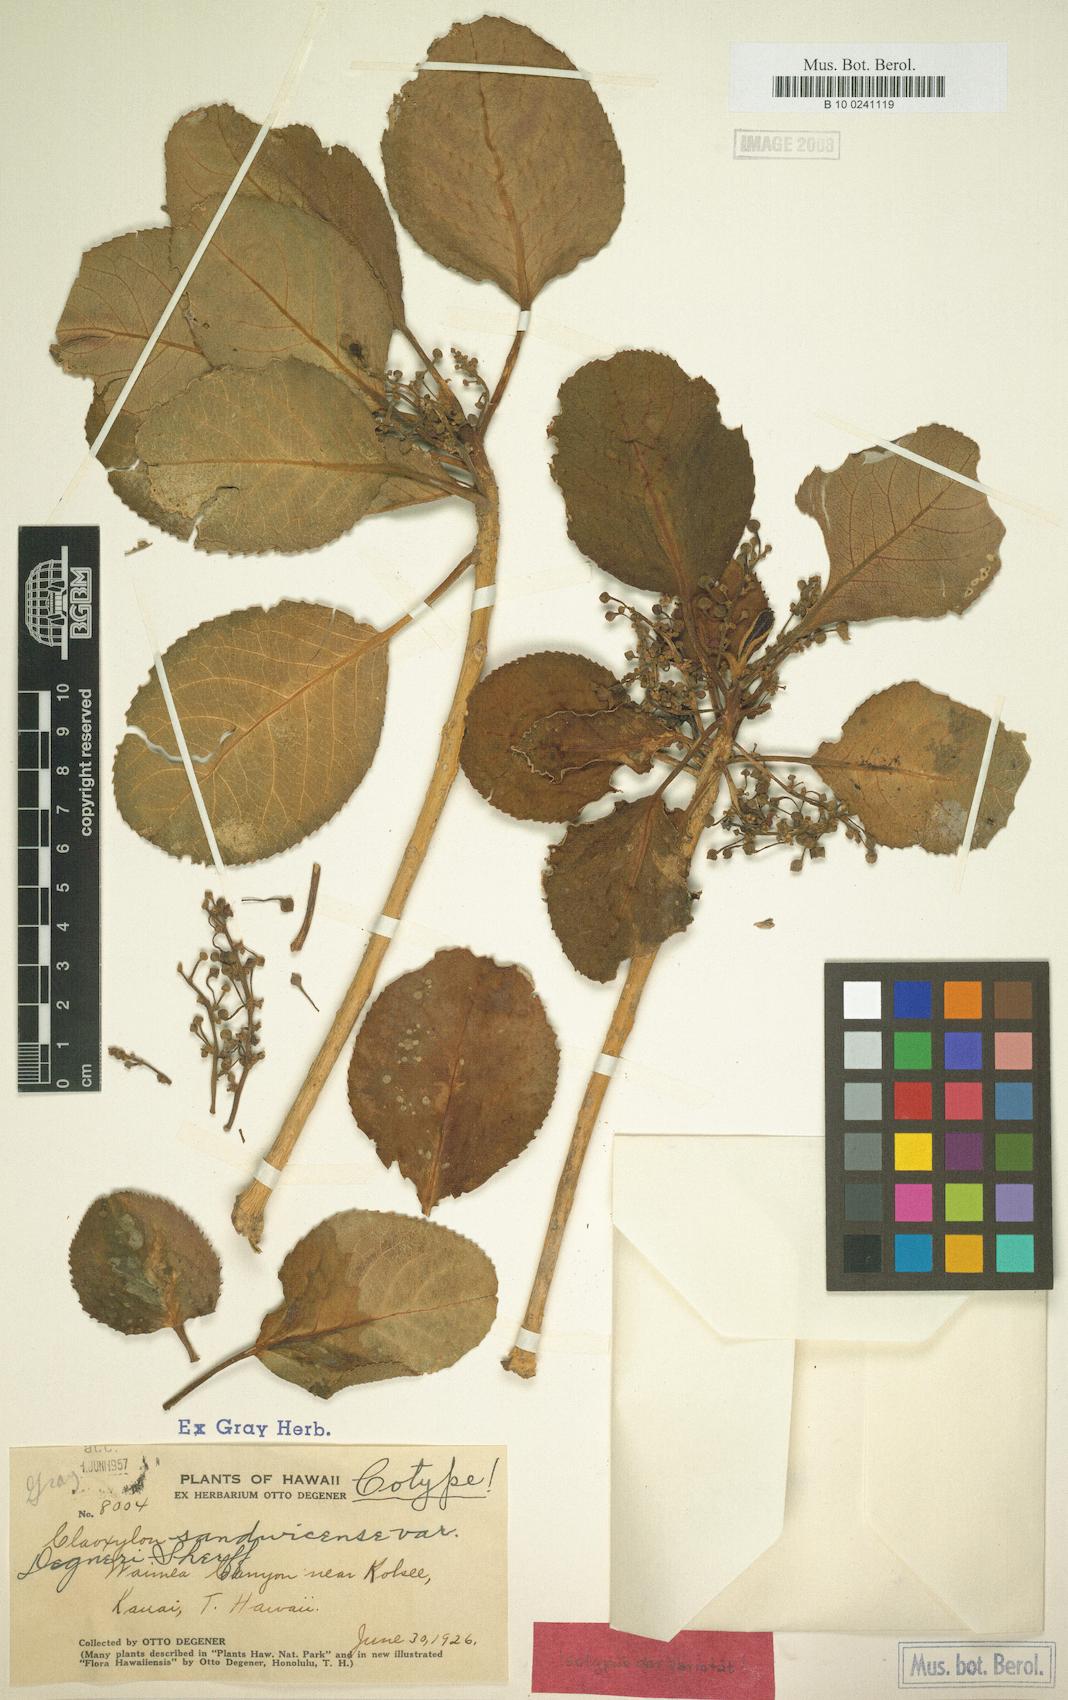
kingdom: Plantae
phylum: Tracheophyta
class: Magnoliopsida
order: Malpighiales
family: Euphorbiaceae
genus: Claoxylon
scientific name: Claoxylon sandwicense
